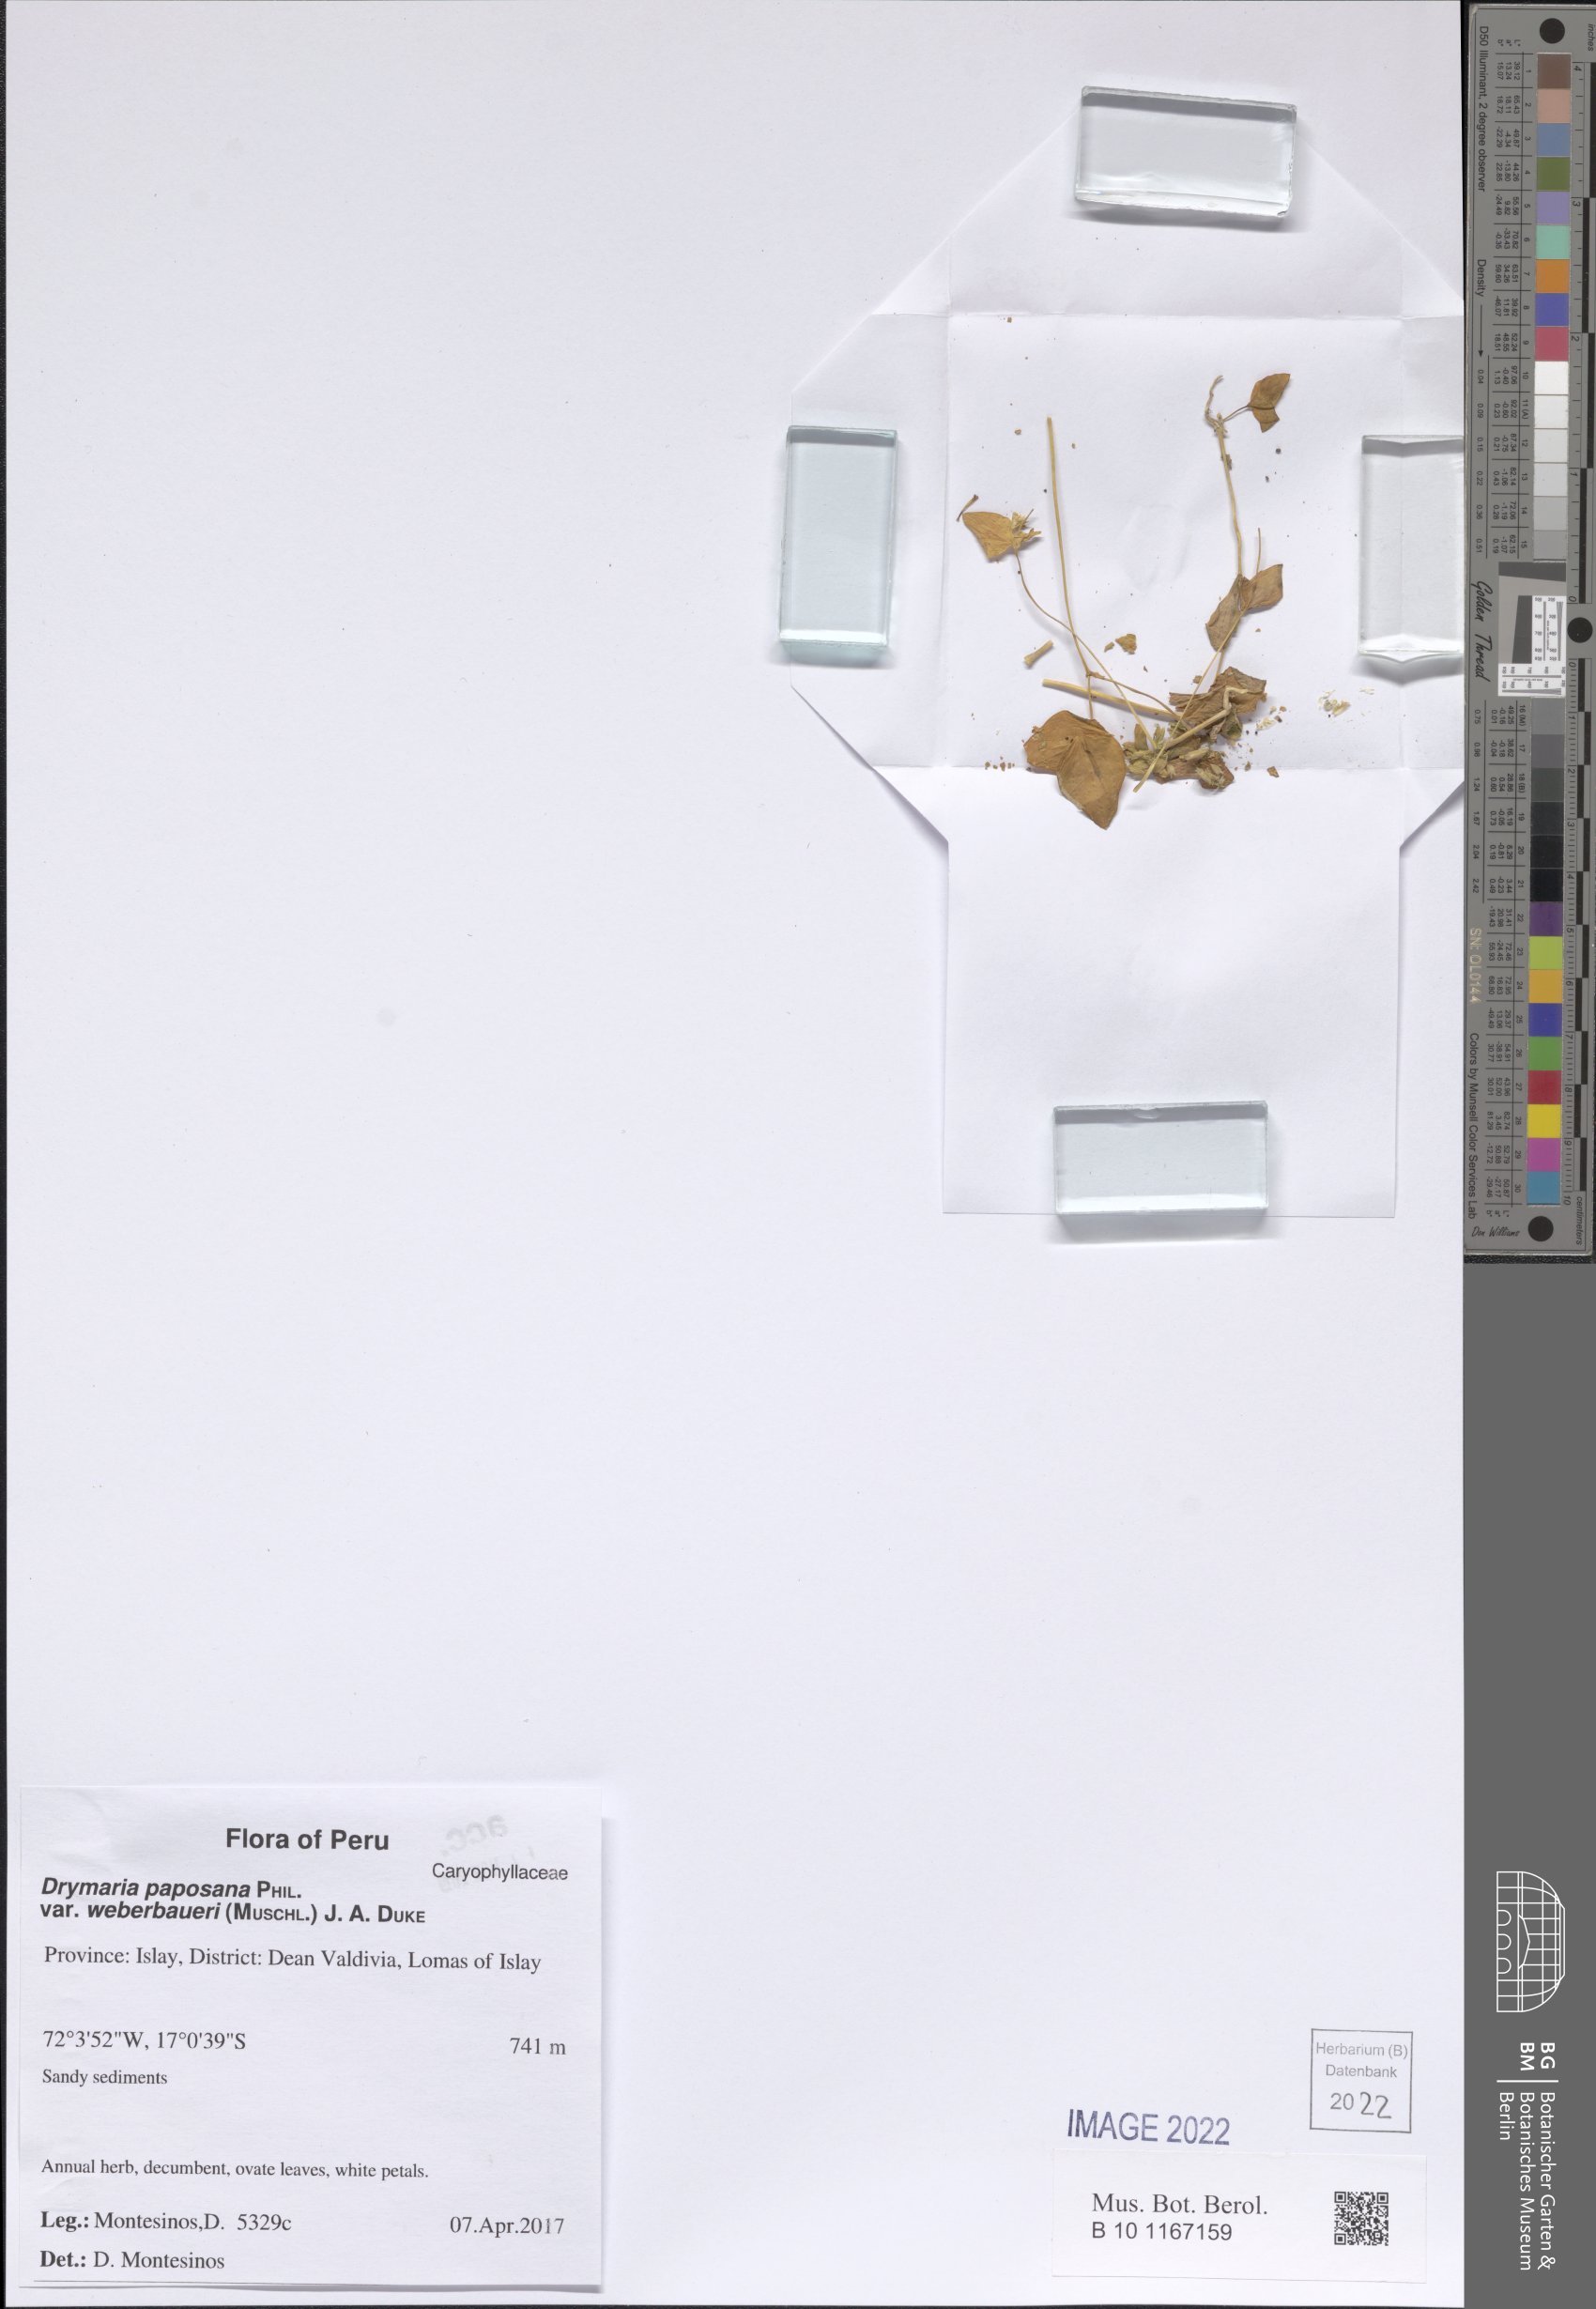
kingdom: Plantae
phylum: Tracheophyta
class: Magnoliopsida
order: Caryophyllales
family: Caryophyllaceae
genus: Drymaria
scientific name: Drymaria paposana
